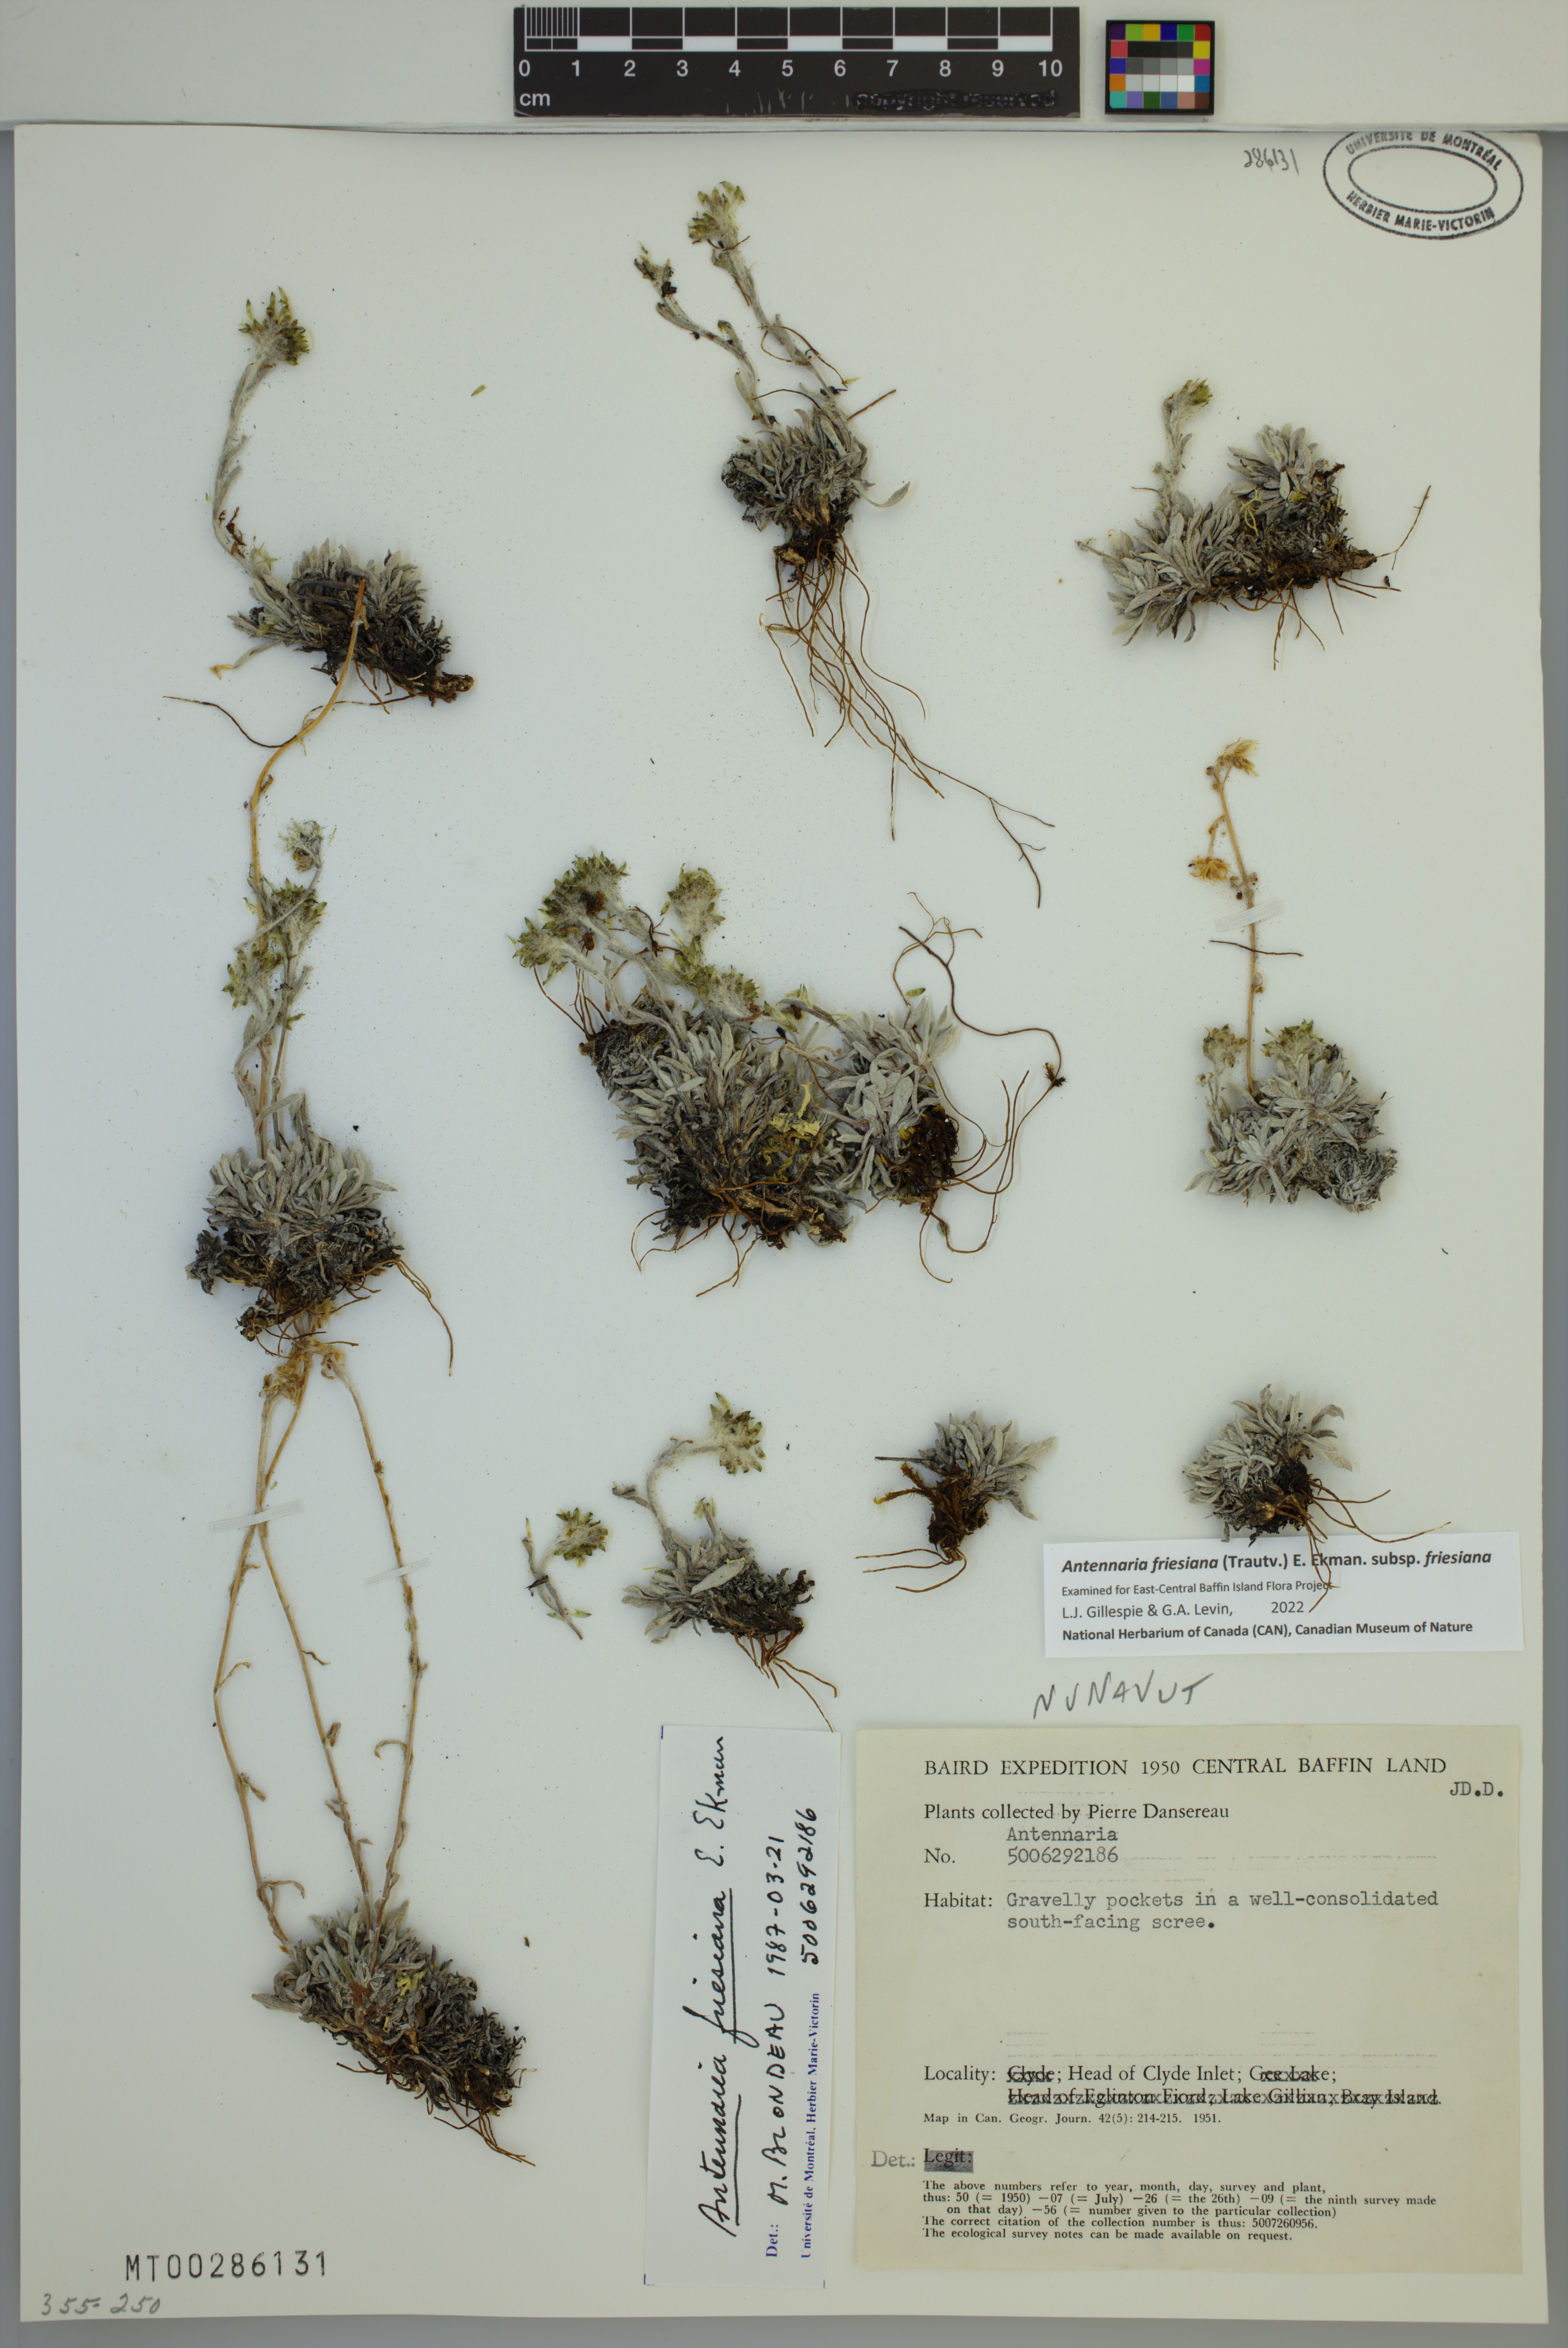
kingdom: Plantae
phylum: Tracheophyta
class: Magnoliopsida
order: Asterales
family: Asteraceae
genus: Antennaria
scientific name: Antennaria friesiana
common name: Fries' pussytoes
